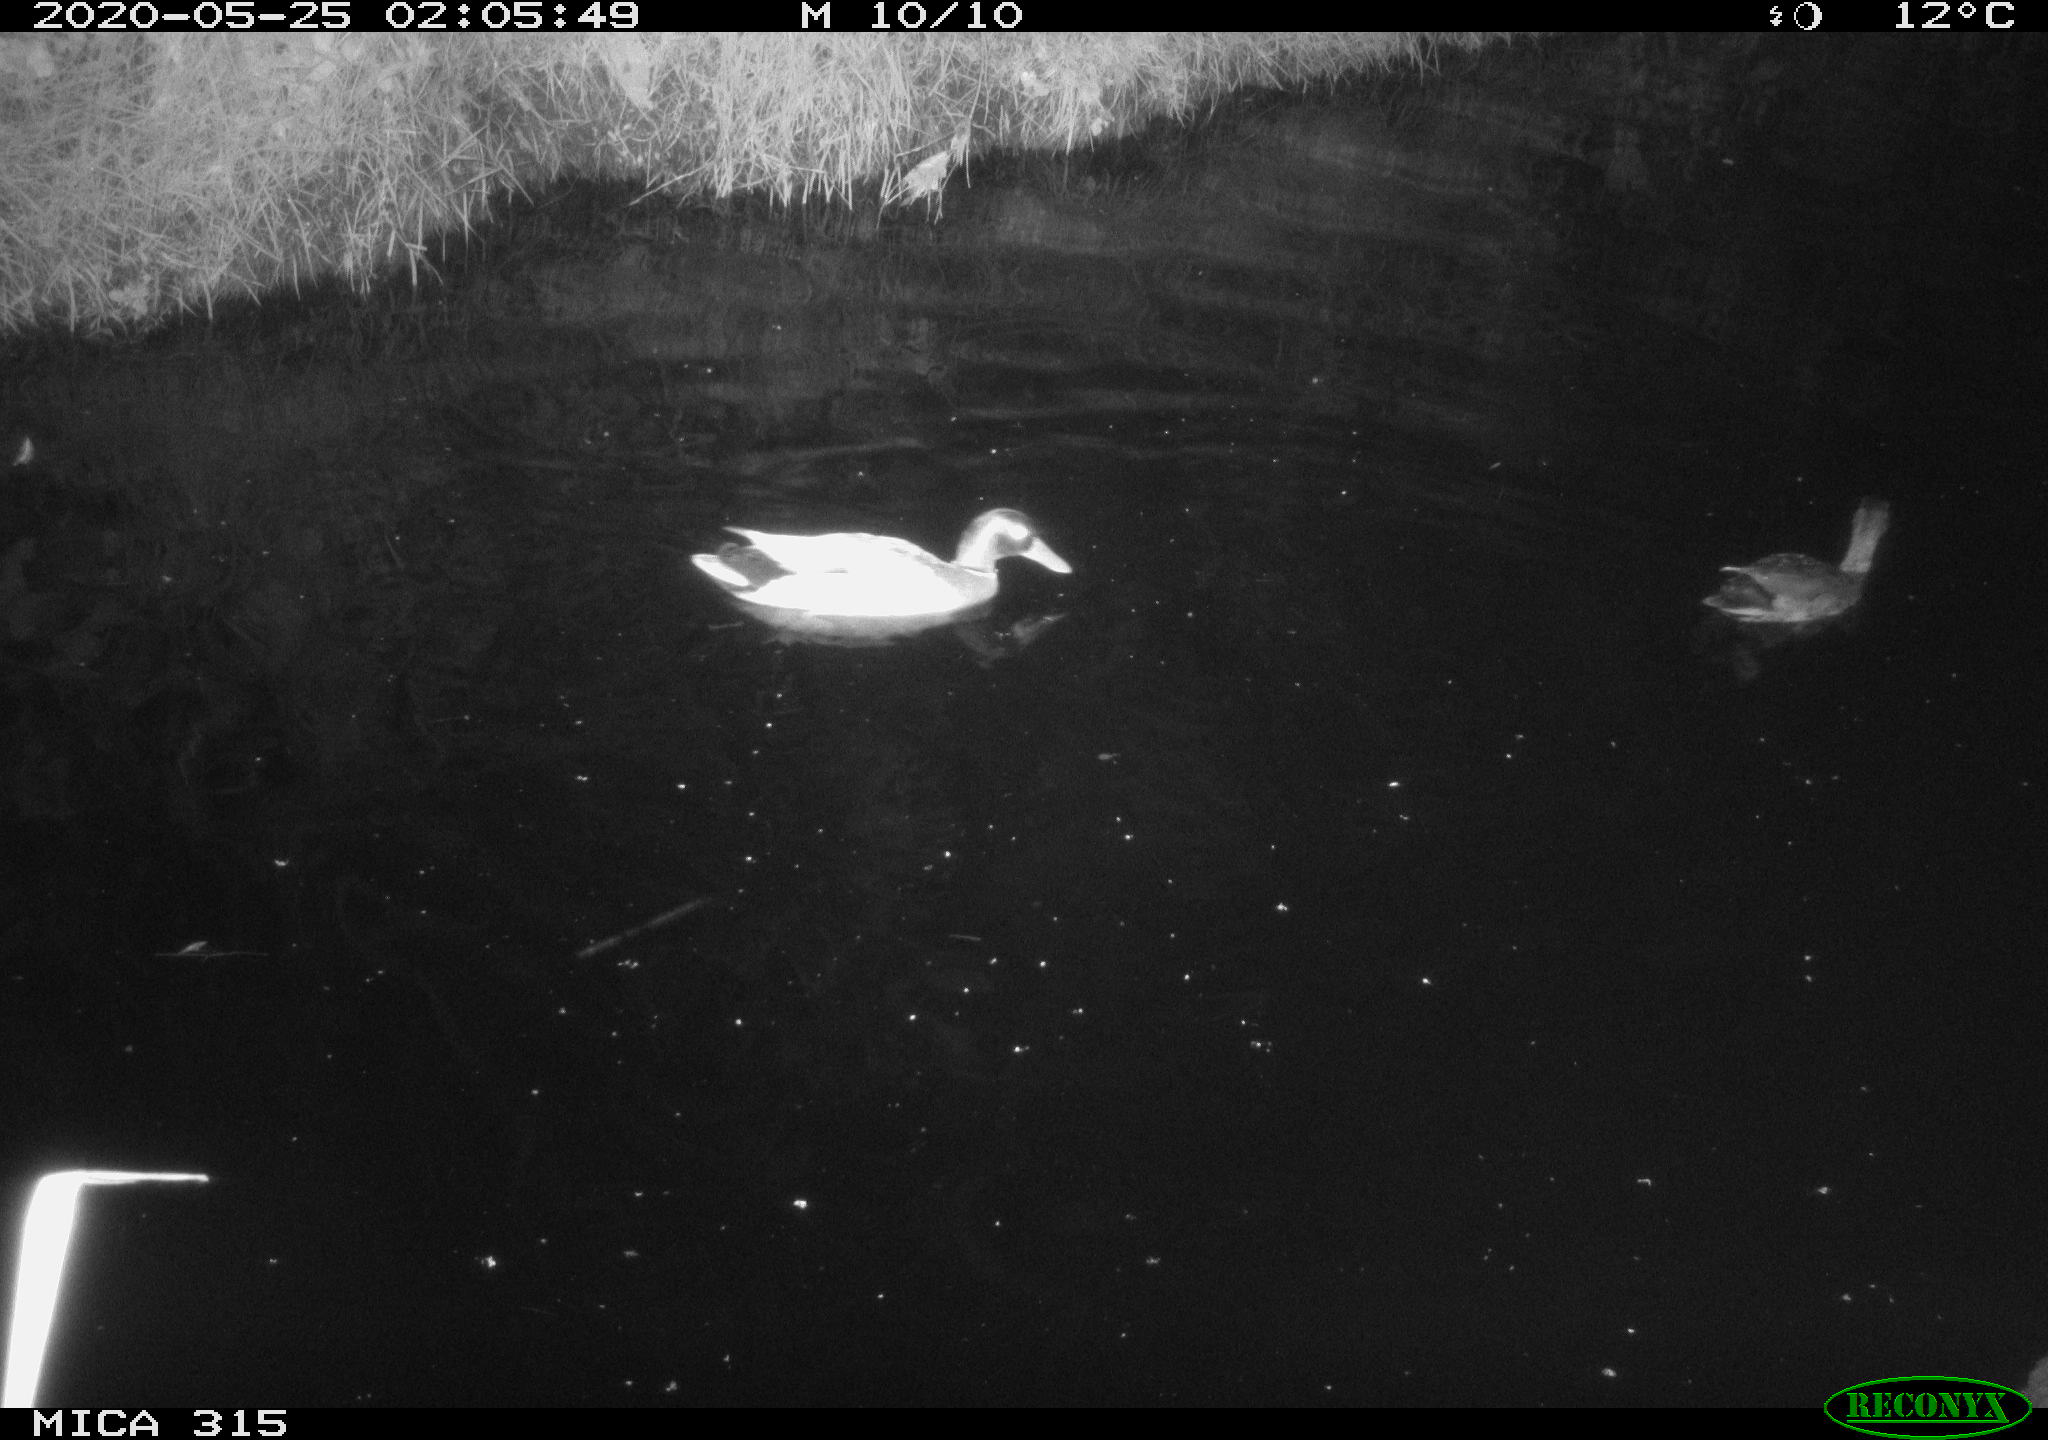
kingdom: Animalia
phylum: Chordata
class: Aves
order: Anseriformes
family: Anatidae
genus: Anas
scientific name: Anas platyrhynchos
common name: Mallard
